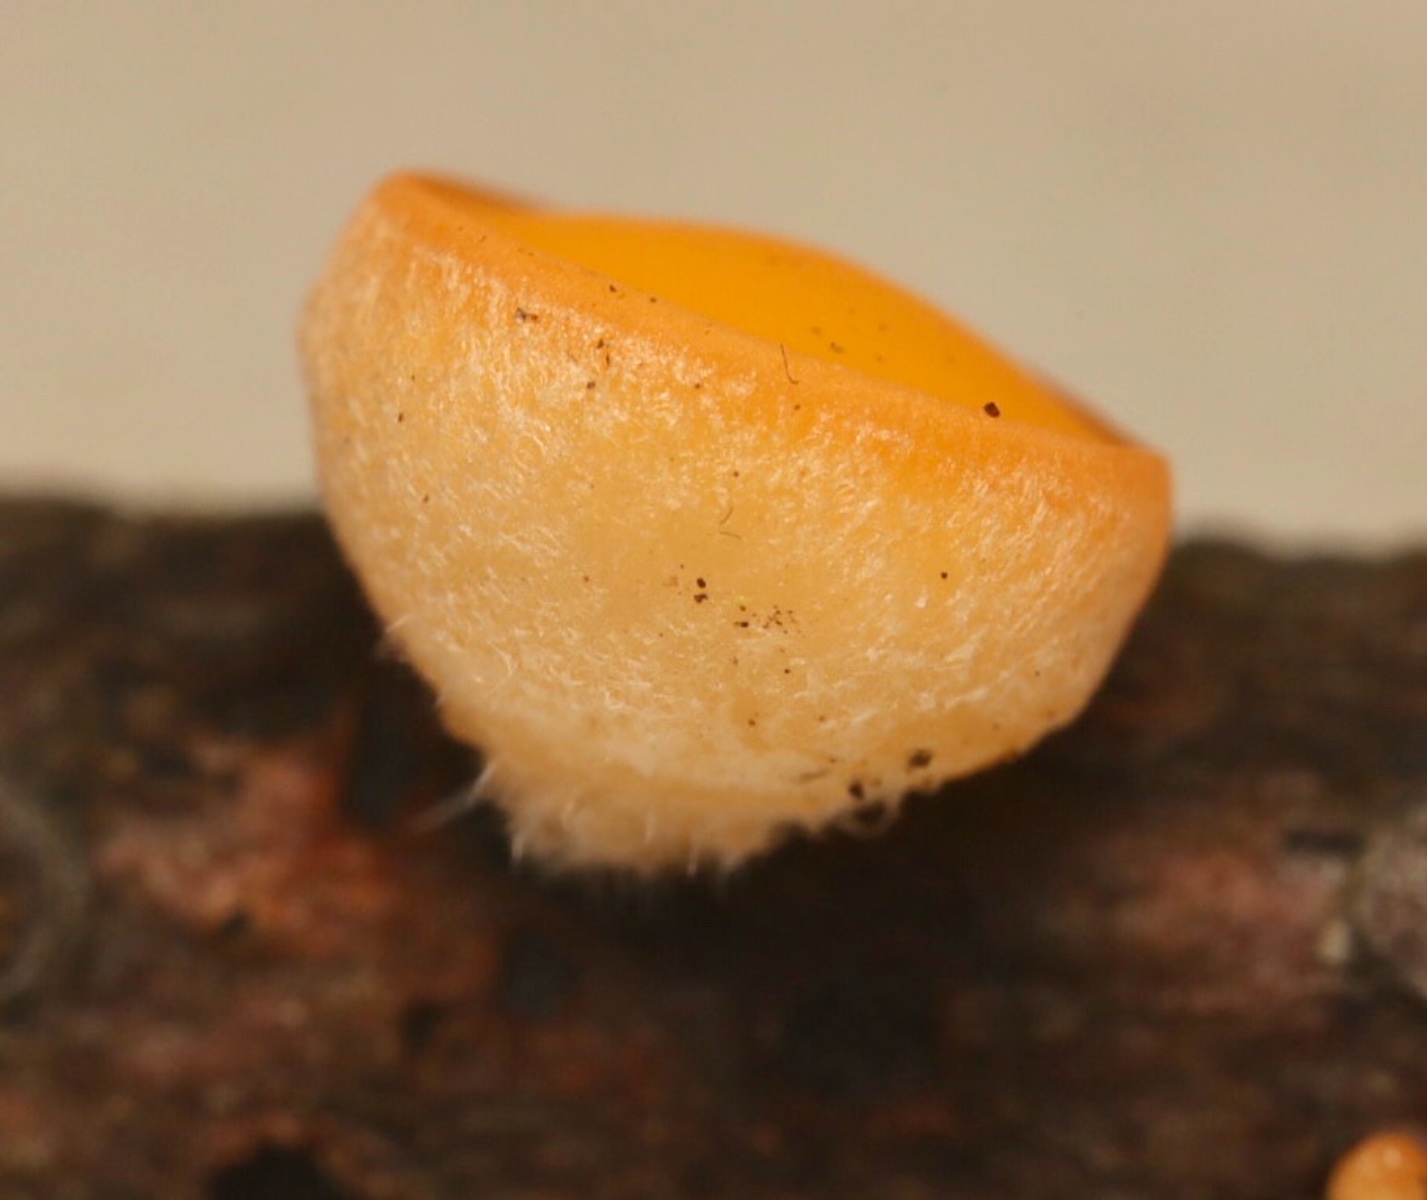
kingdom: Fungi
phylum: Ascomycota
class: Pezizomycetes
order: Pezizales
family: Sarcoscyphaceae
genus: Pithya
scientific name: Pithya vulgaris
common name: stor dukatbæger
